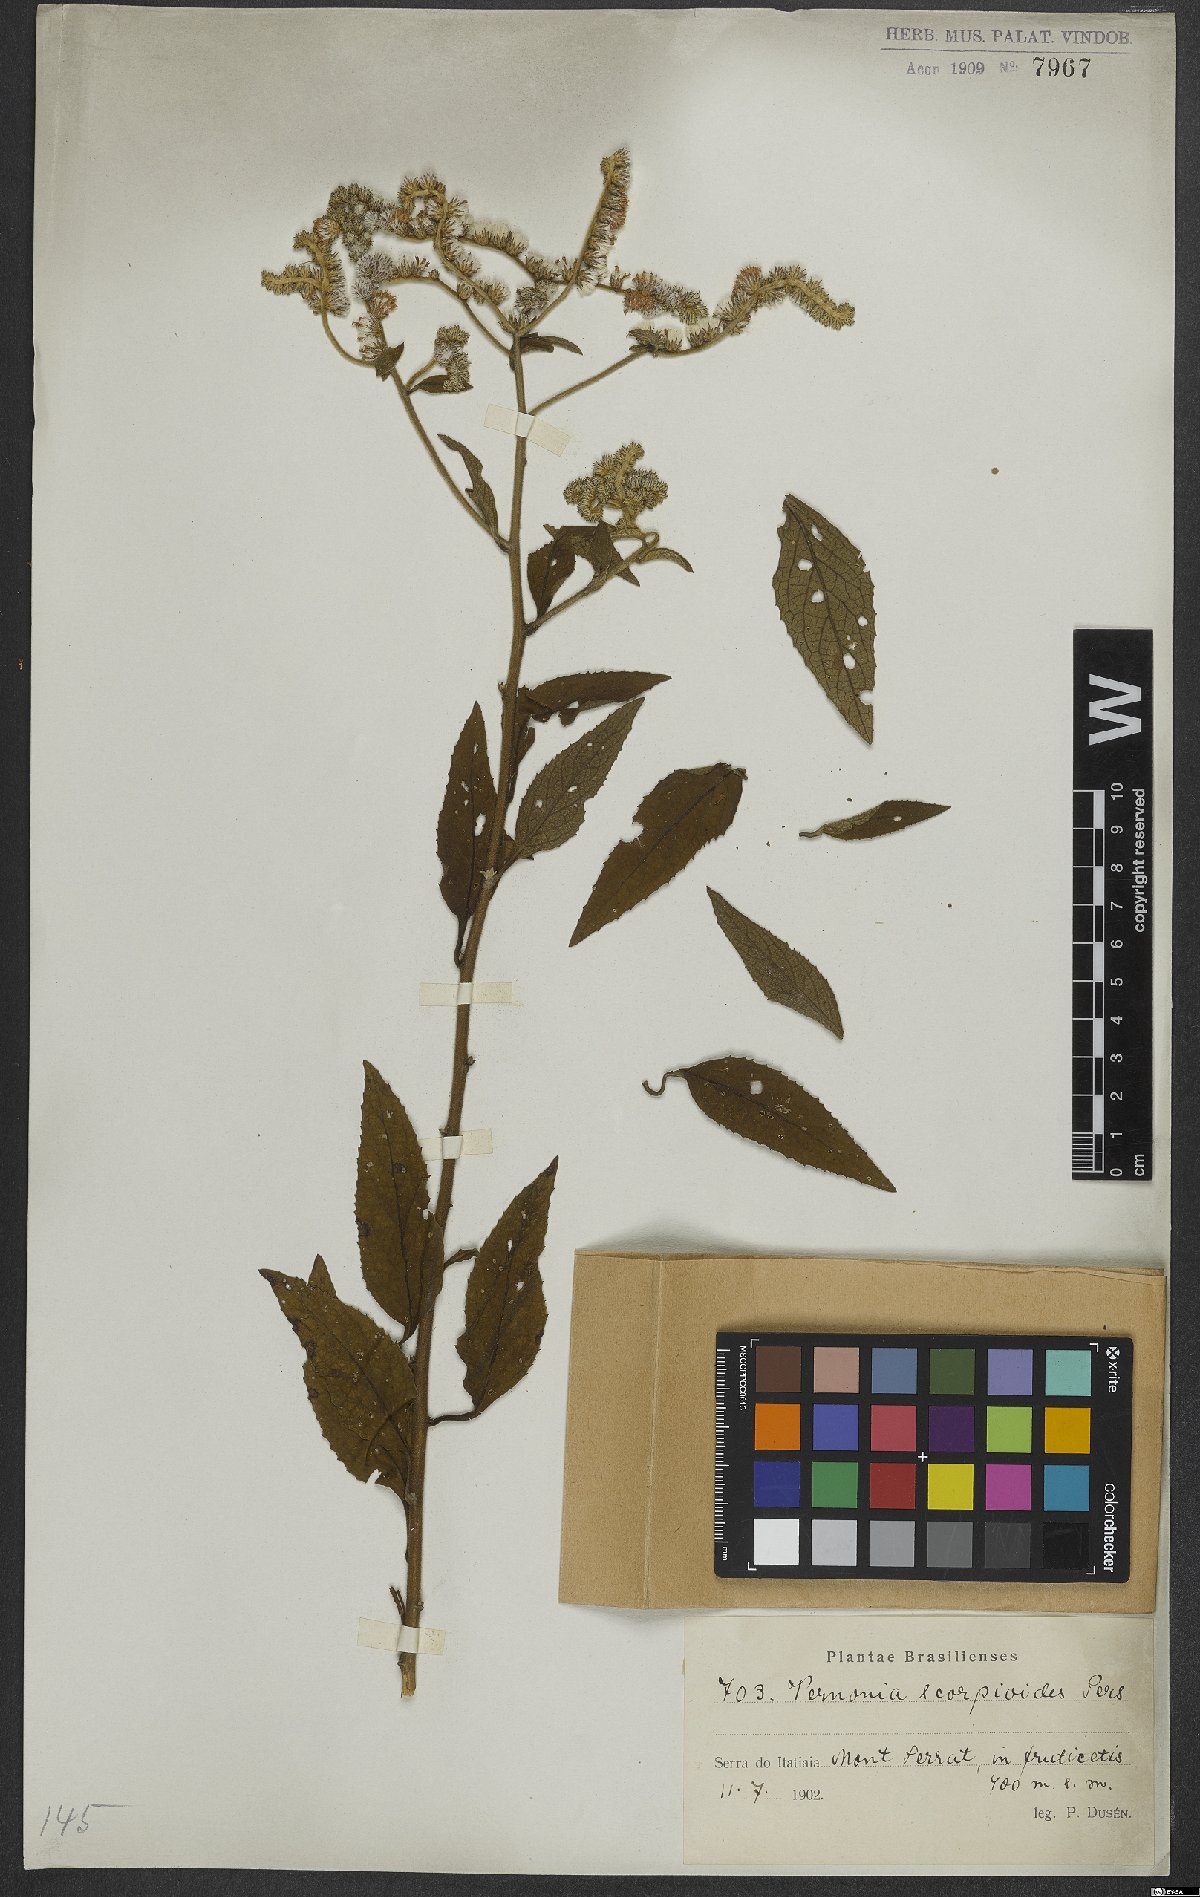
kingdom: Plantae
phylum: Tracheophyta
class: Magnoliopsida
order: Asterales
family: Asteraceae
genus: Cyrtocymura
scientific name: Cyrtocymura scorpioides
